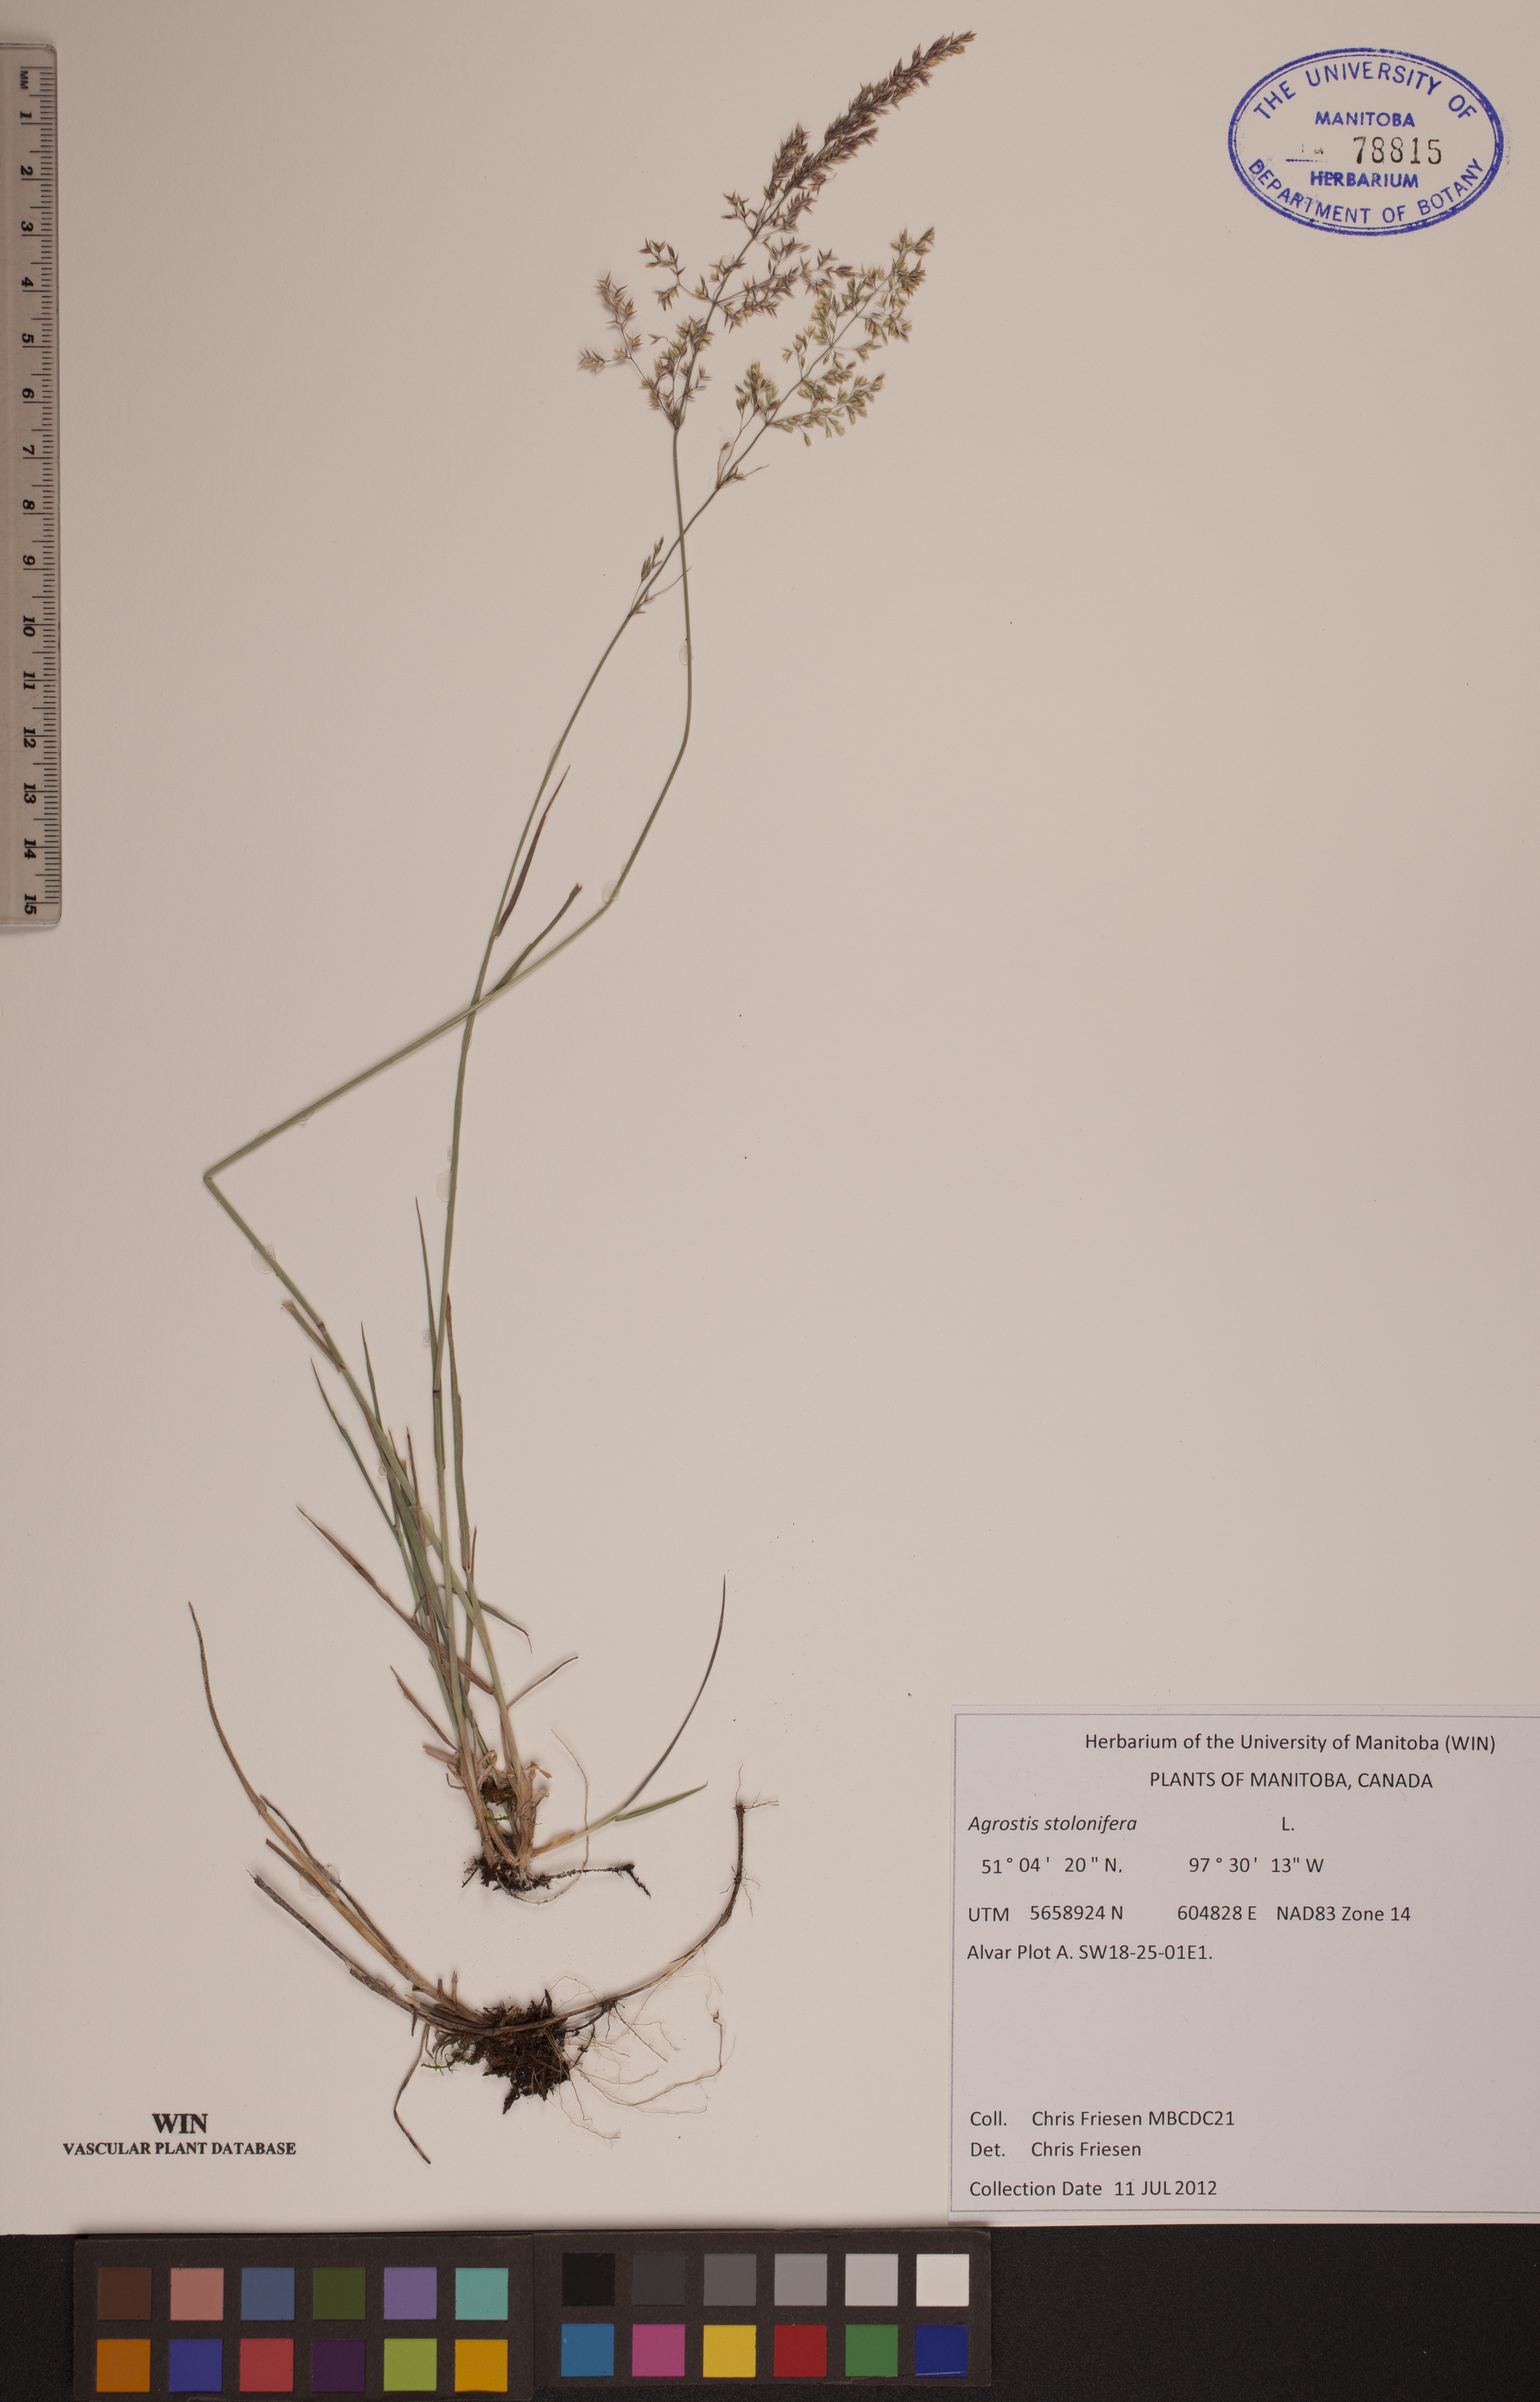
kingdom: Plantae
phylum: Tracheophyta
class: Liliopsida
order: Poales
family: Poaceae
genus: Agrostis
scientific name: Agrostis stolonifera
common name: Creeping bentgrass
